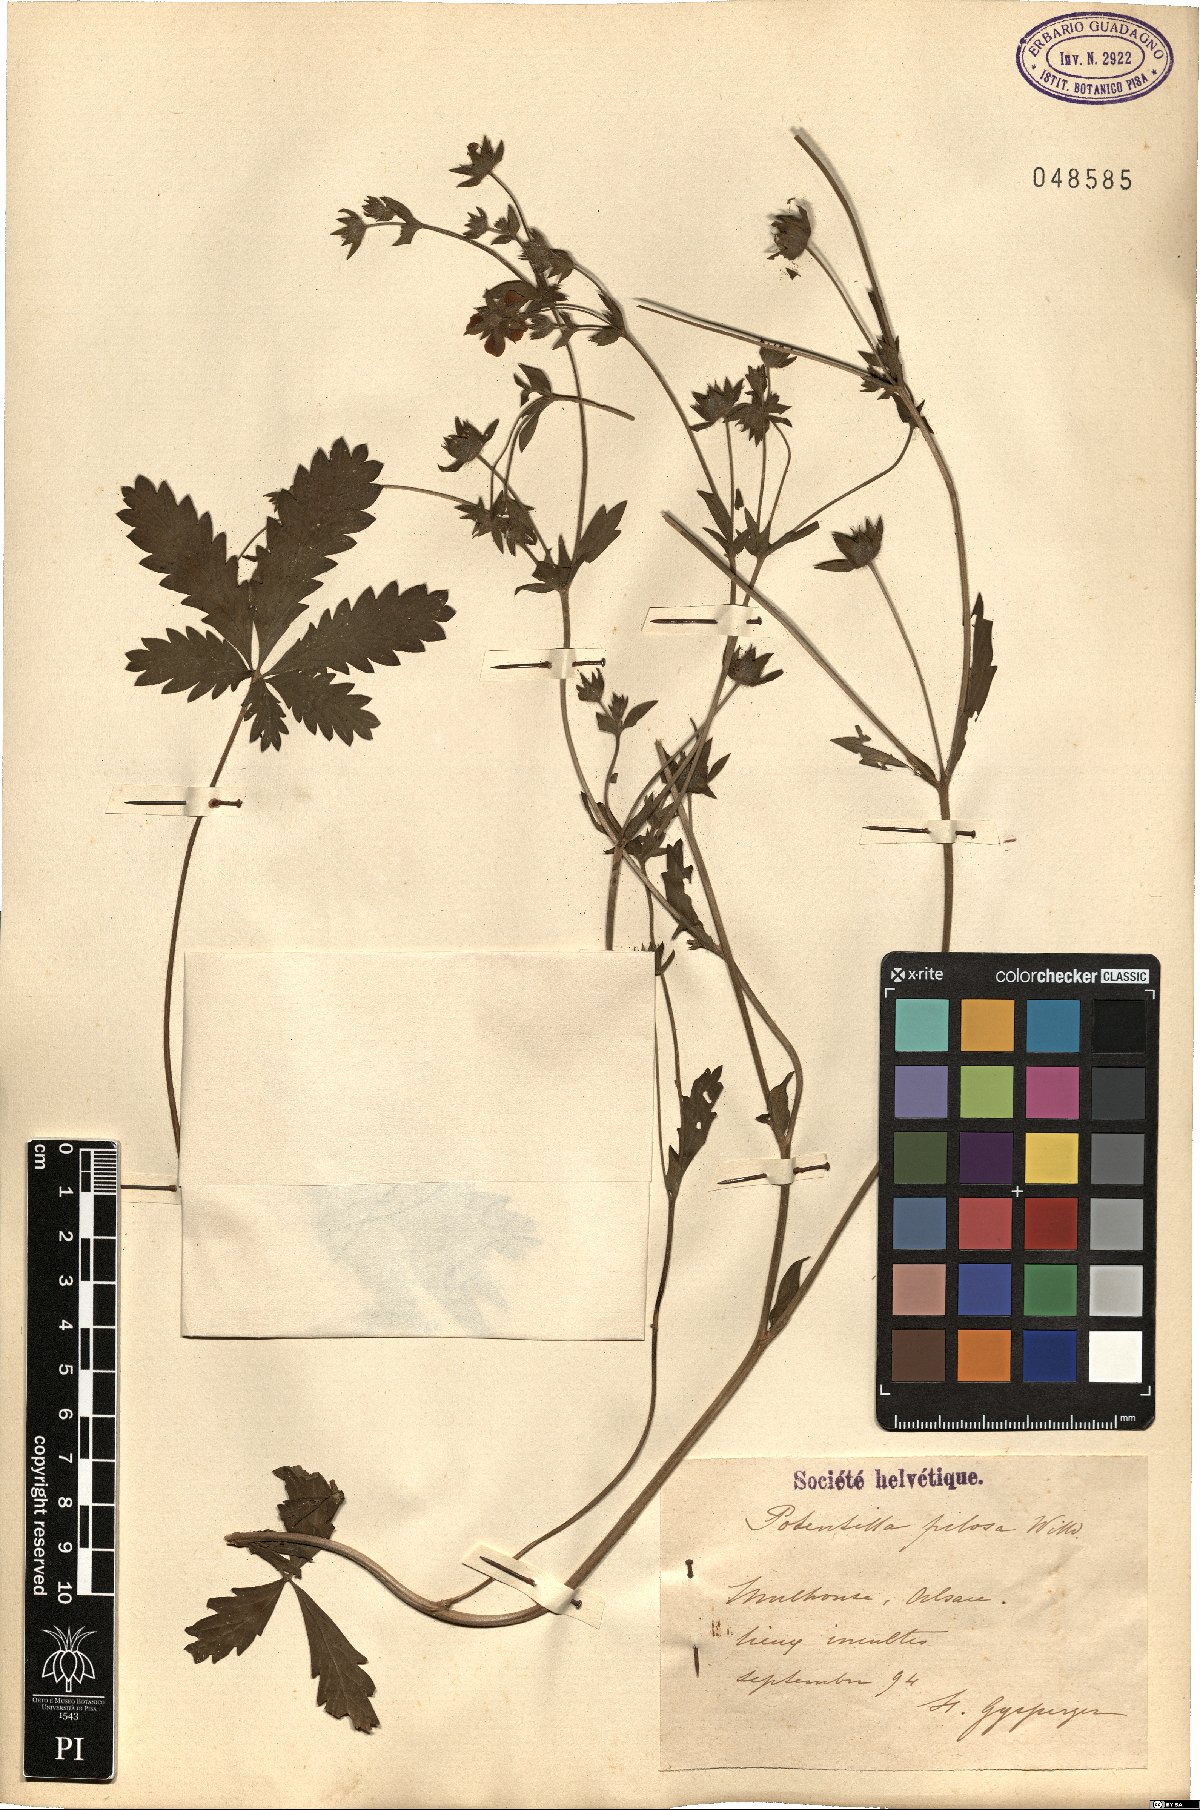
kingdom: Plantae
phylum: Tracheophyta
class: Magnoliopsida
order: Rosales
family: Rosaceae
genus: Potentilla
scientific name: Potentilla recta
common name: Sulphur cinquefoil
